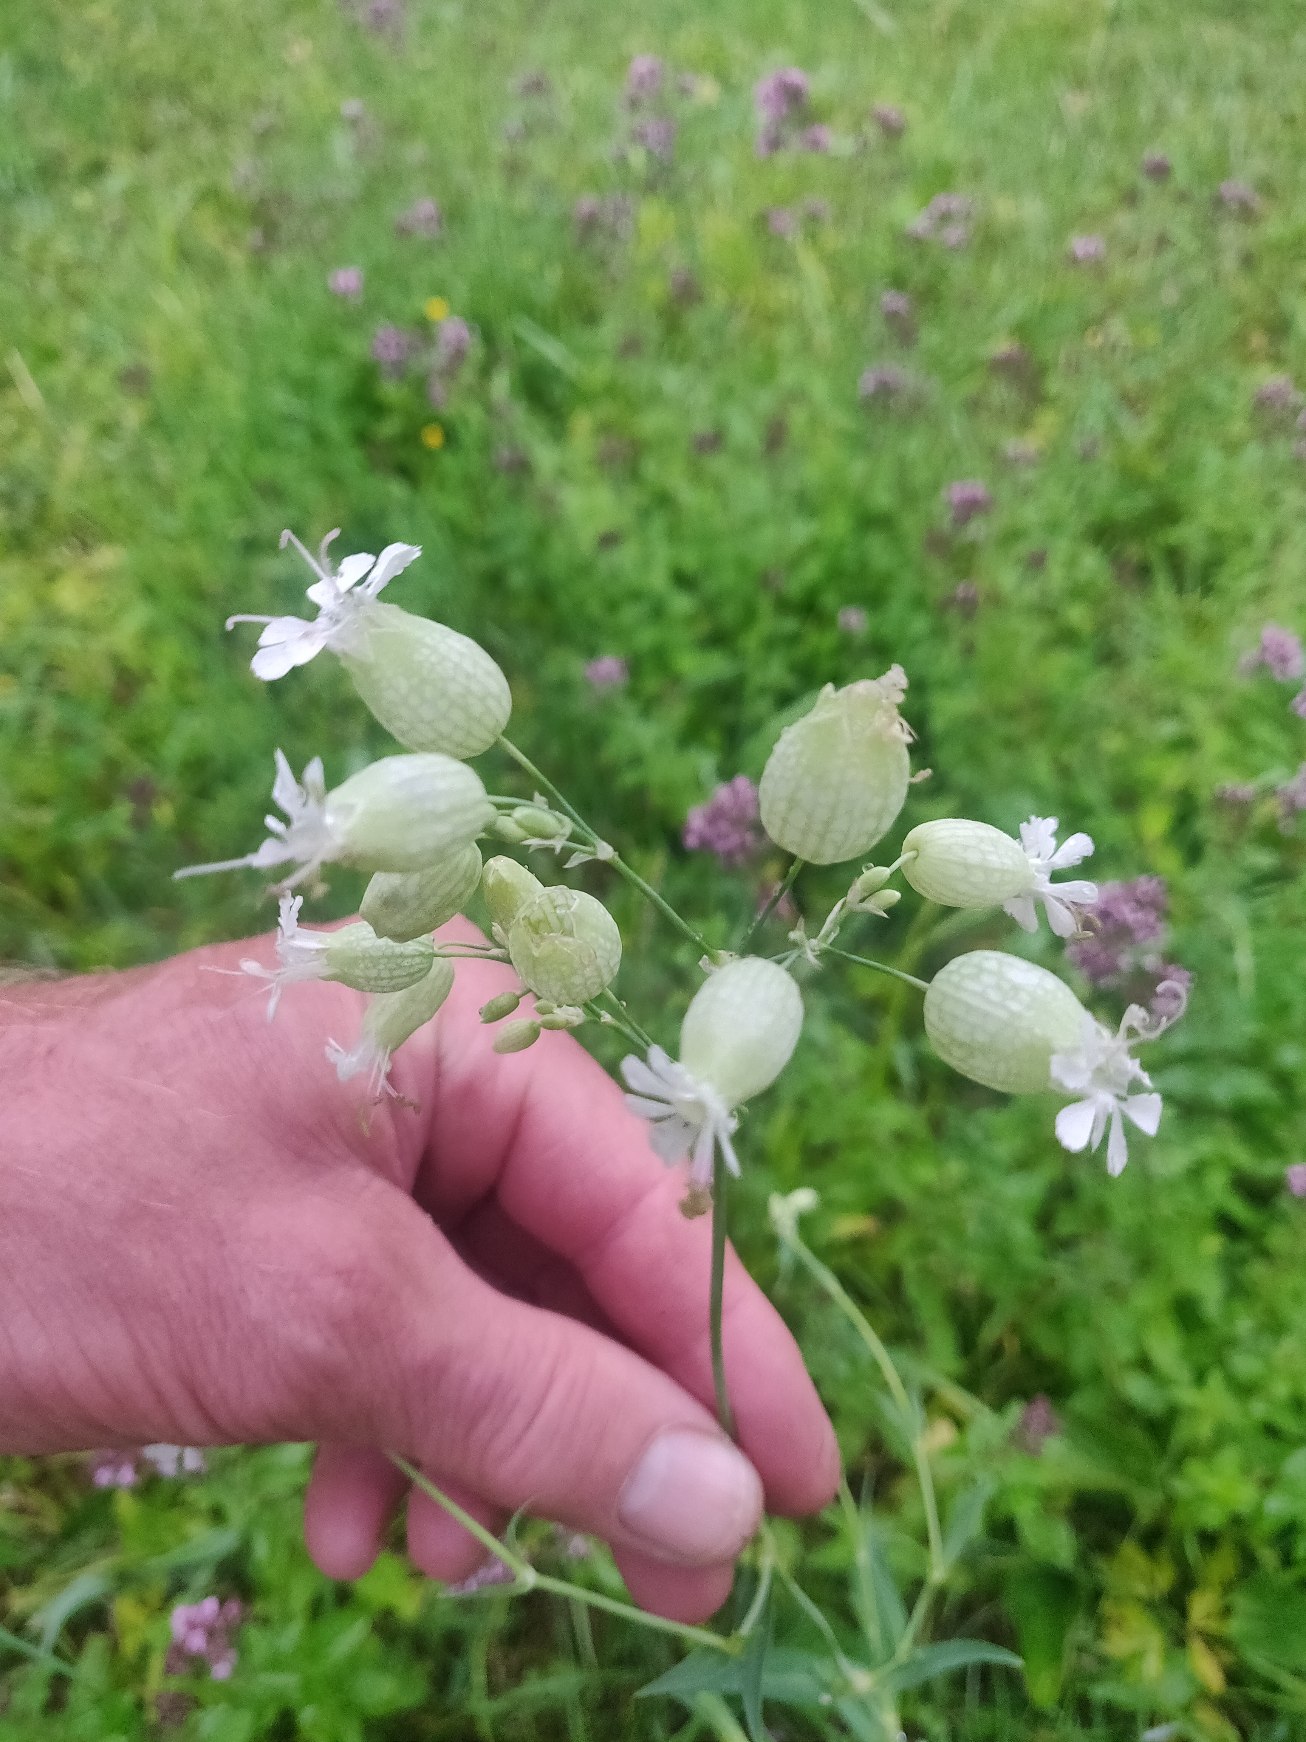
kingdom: Plantae
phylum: Tracheophyta
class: Magnoliopsida
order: Caryophyllales
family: Caryophyllaceae
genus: Silene
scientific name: Silene vulgaris
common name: Blæresmælde
